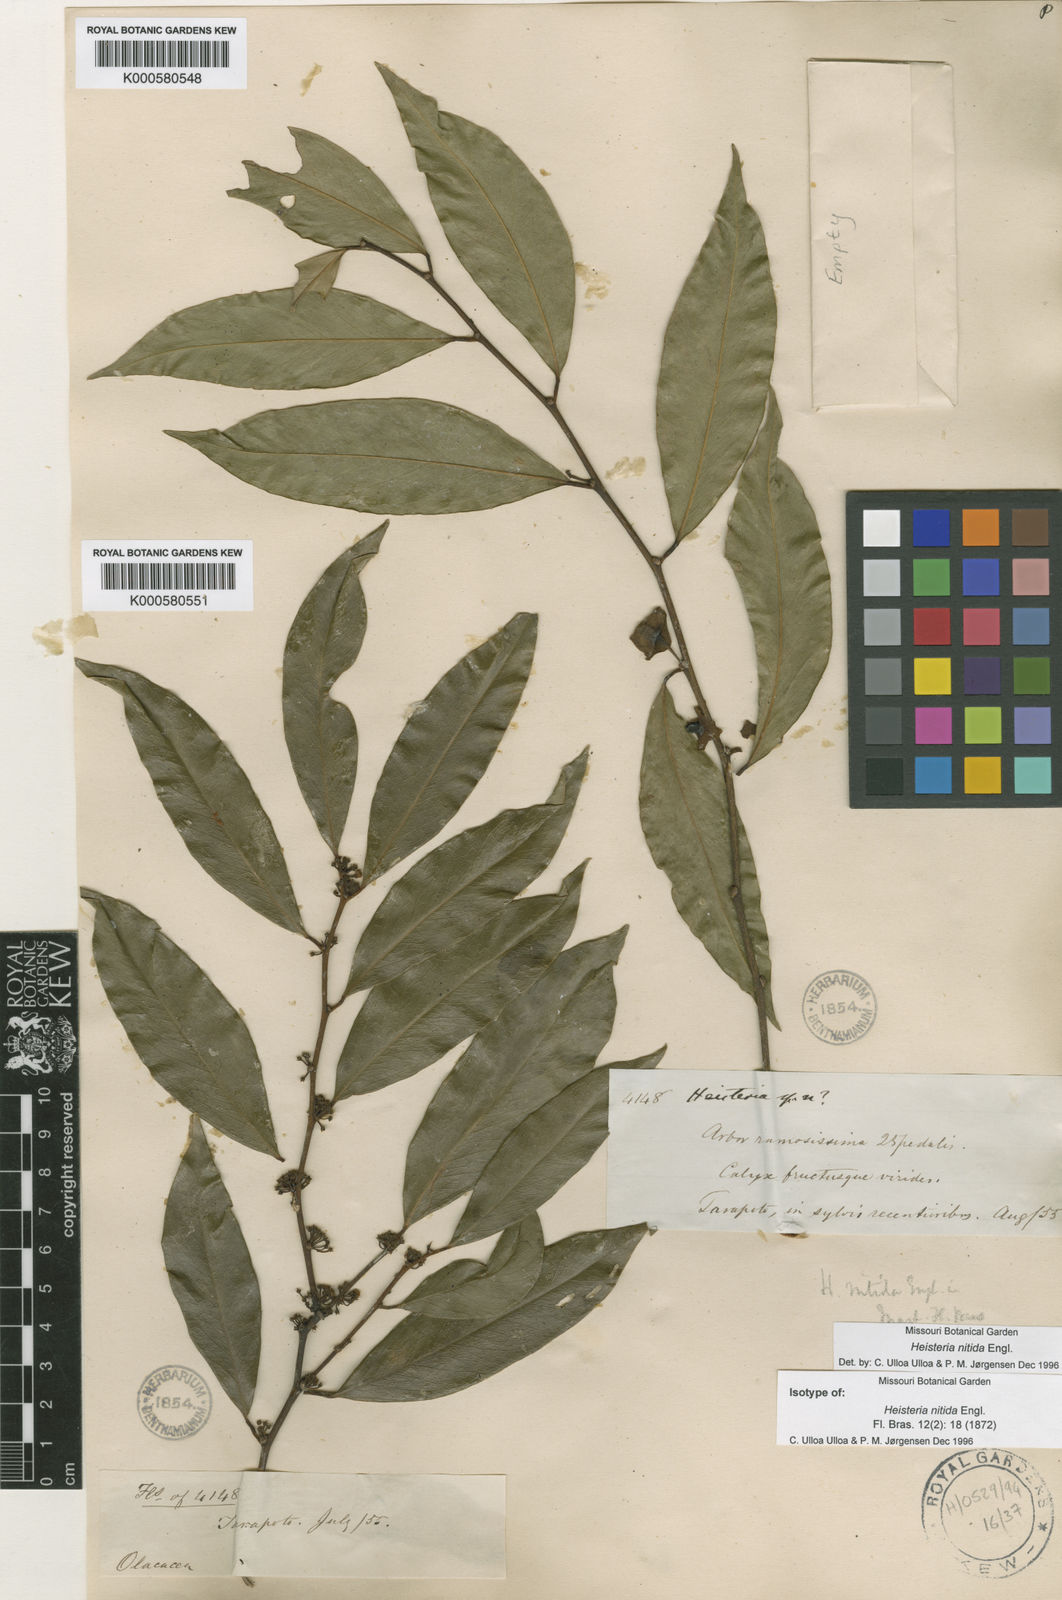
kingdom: Plantae
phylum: Tracheophyta
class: Magnoliopsida
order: Santalales
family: Erythropalaceae
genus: Heisteria
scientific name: Heisteria nitida
